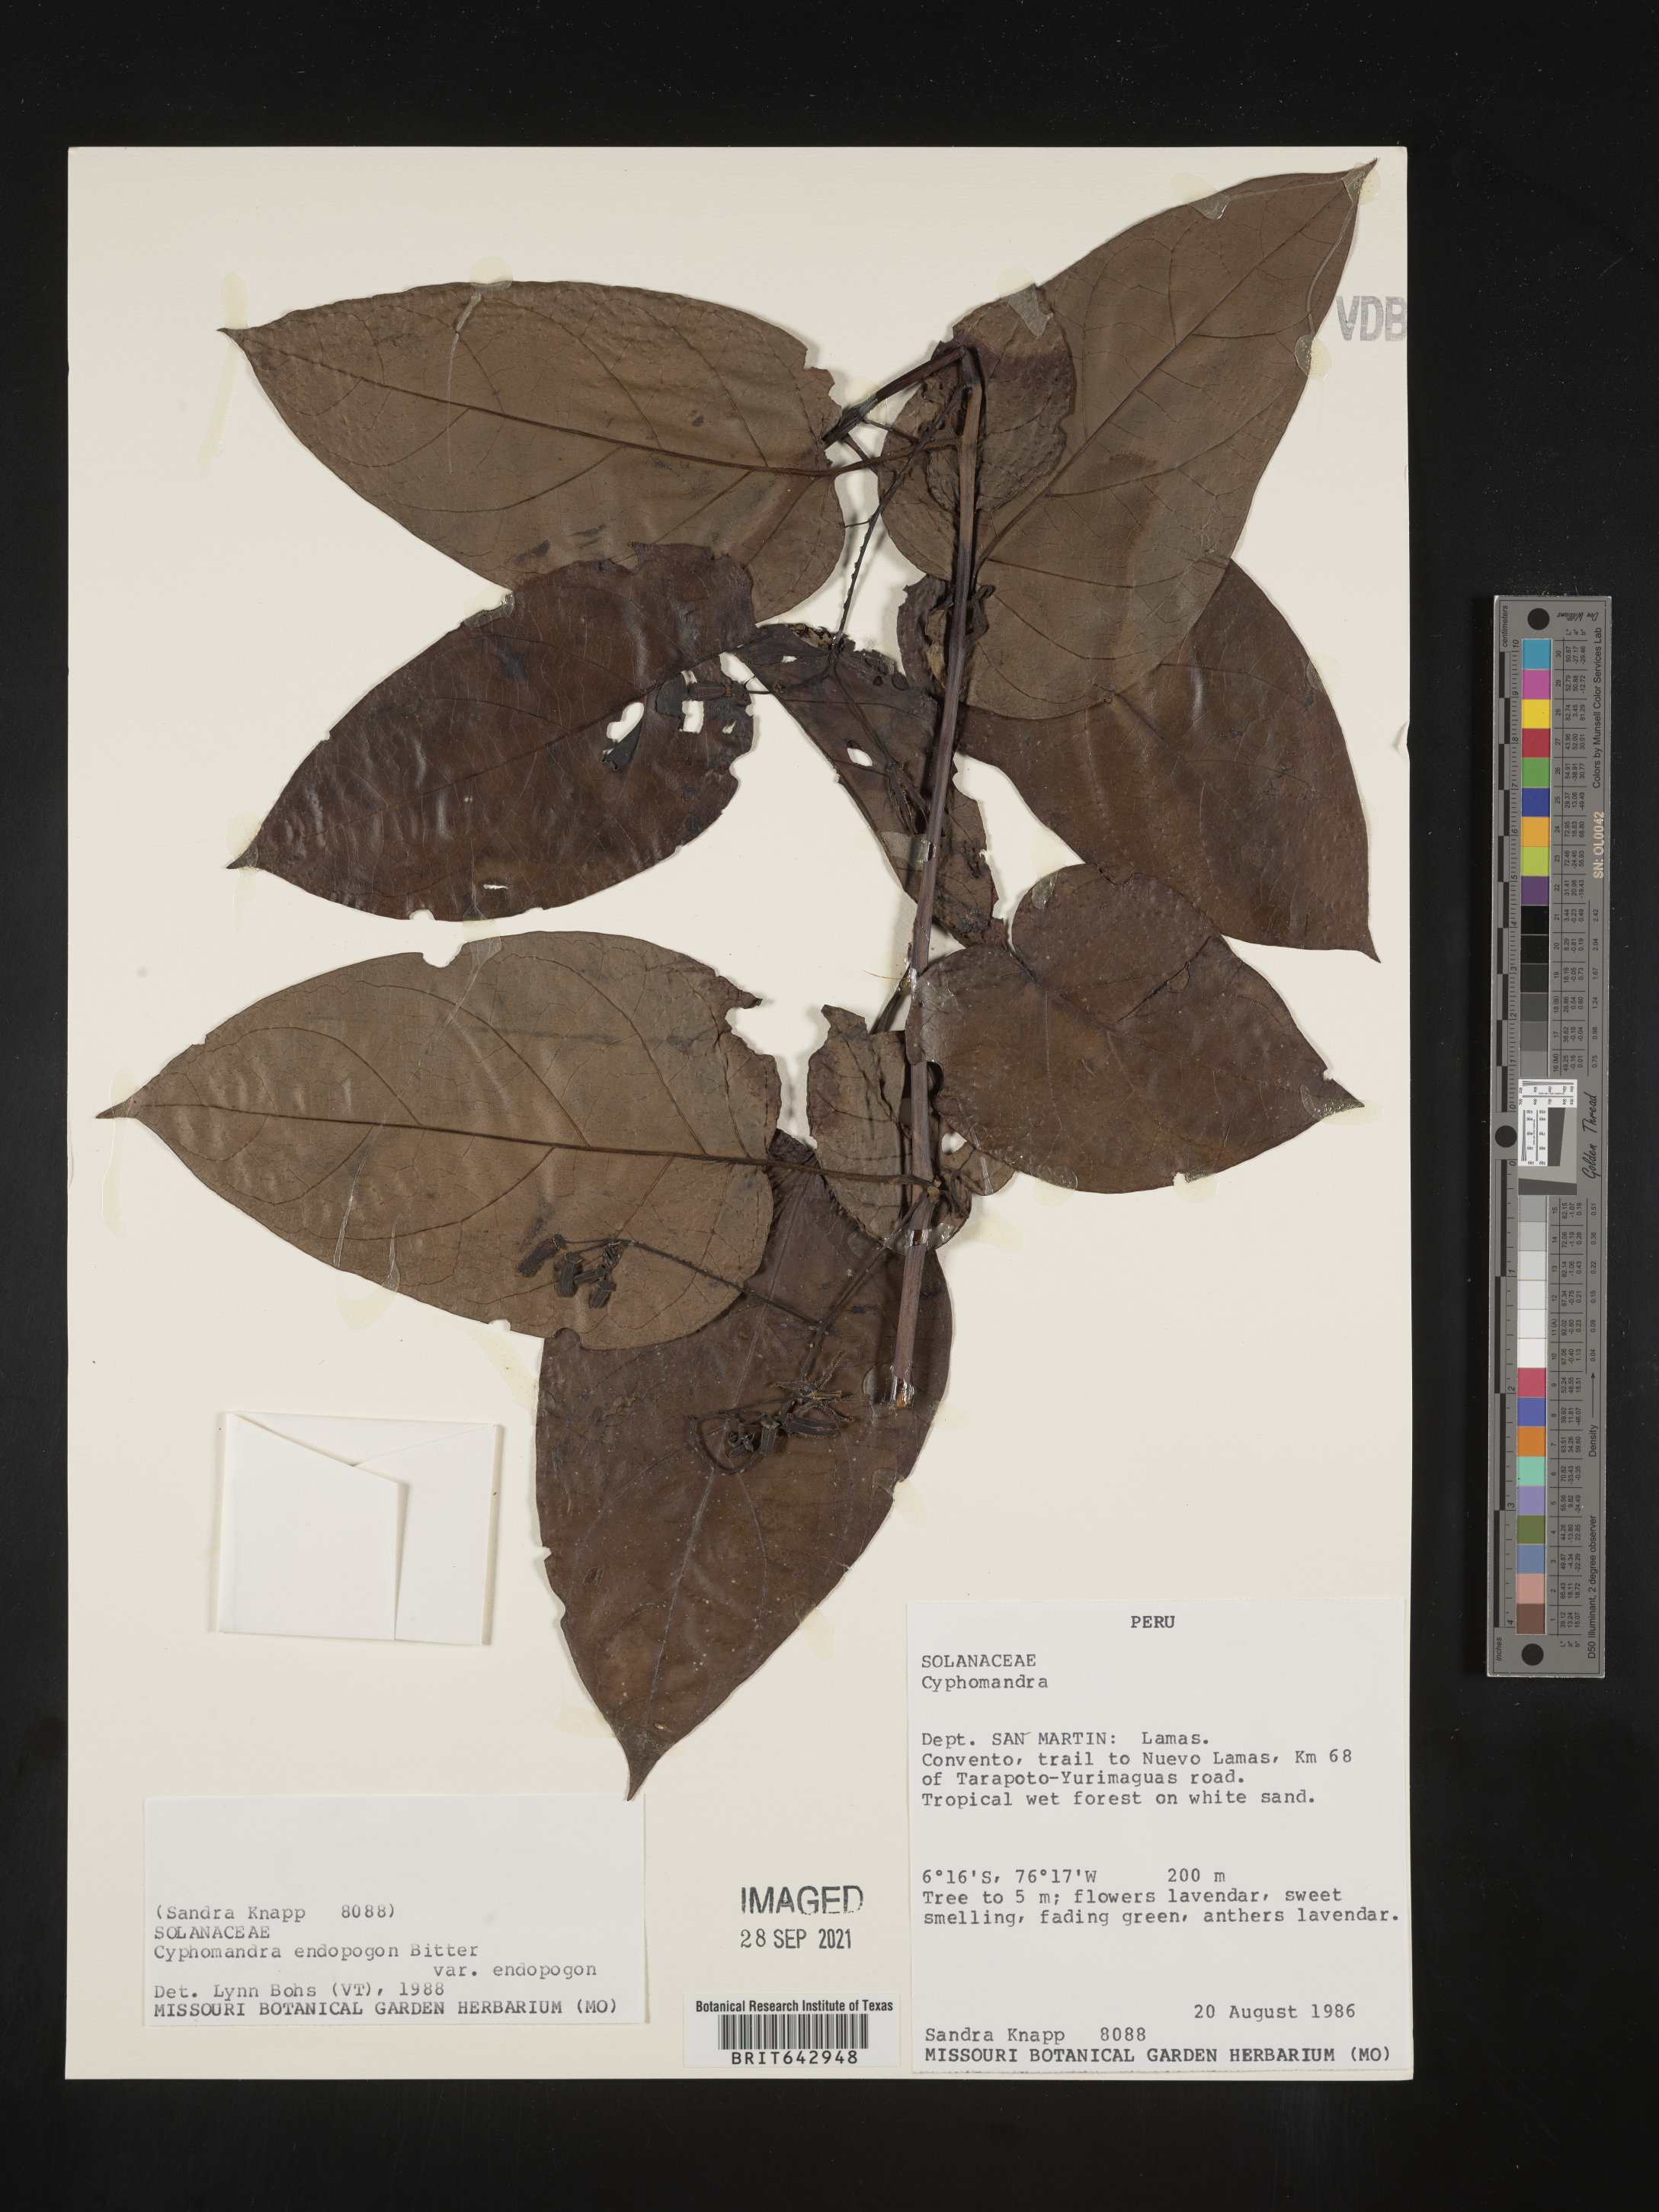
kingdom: Plantae
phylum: Tracheophyta
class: Magnoliopsida
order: Solanales
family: Solanaceae
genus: Solanum
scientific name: Solanum
